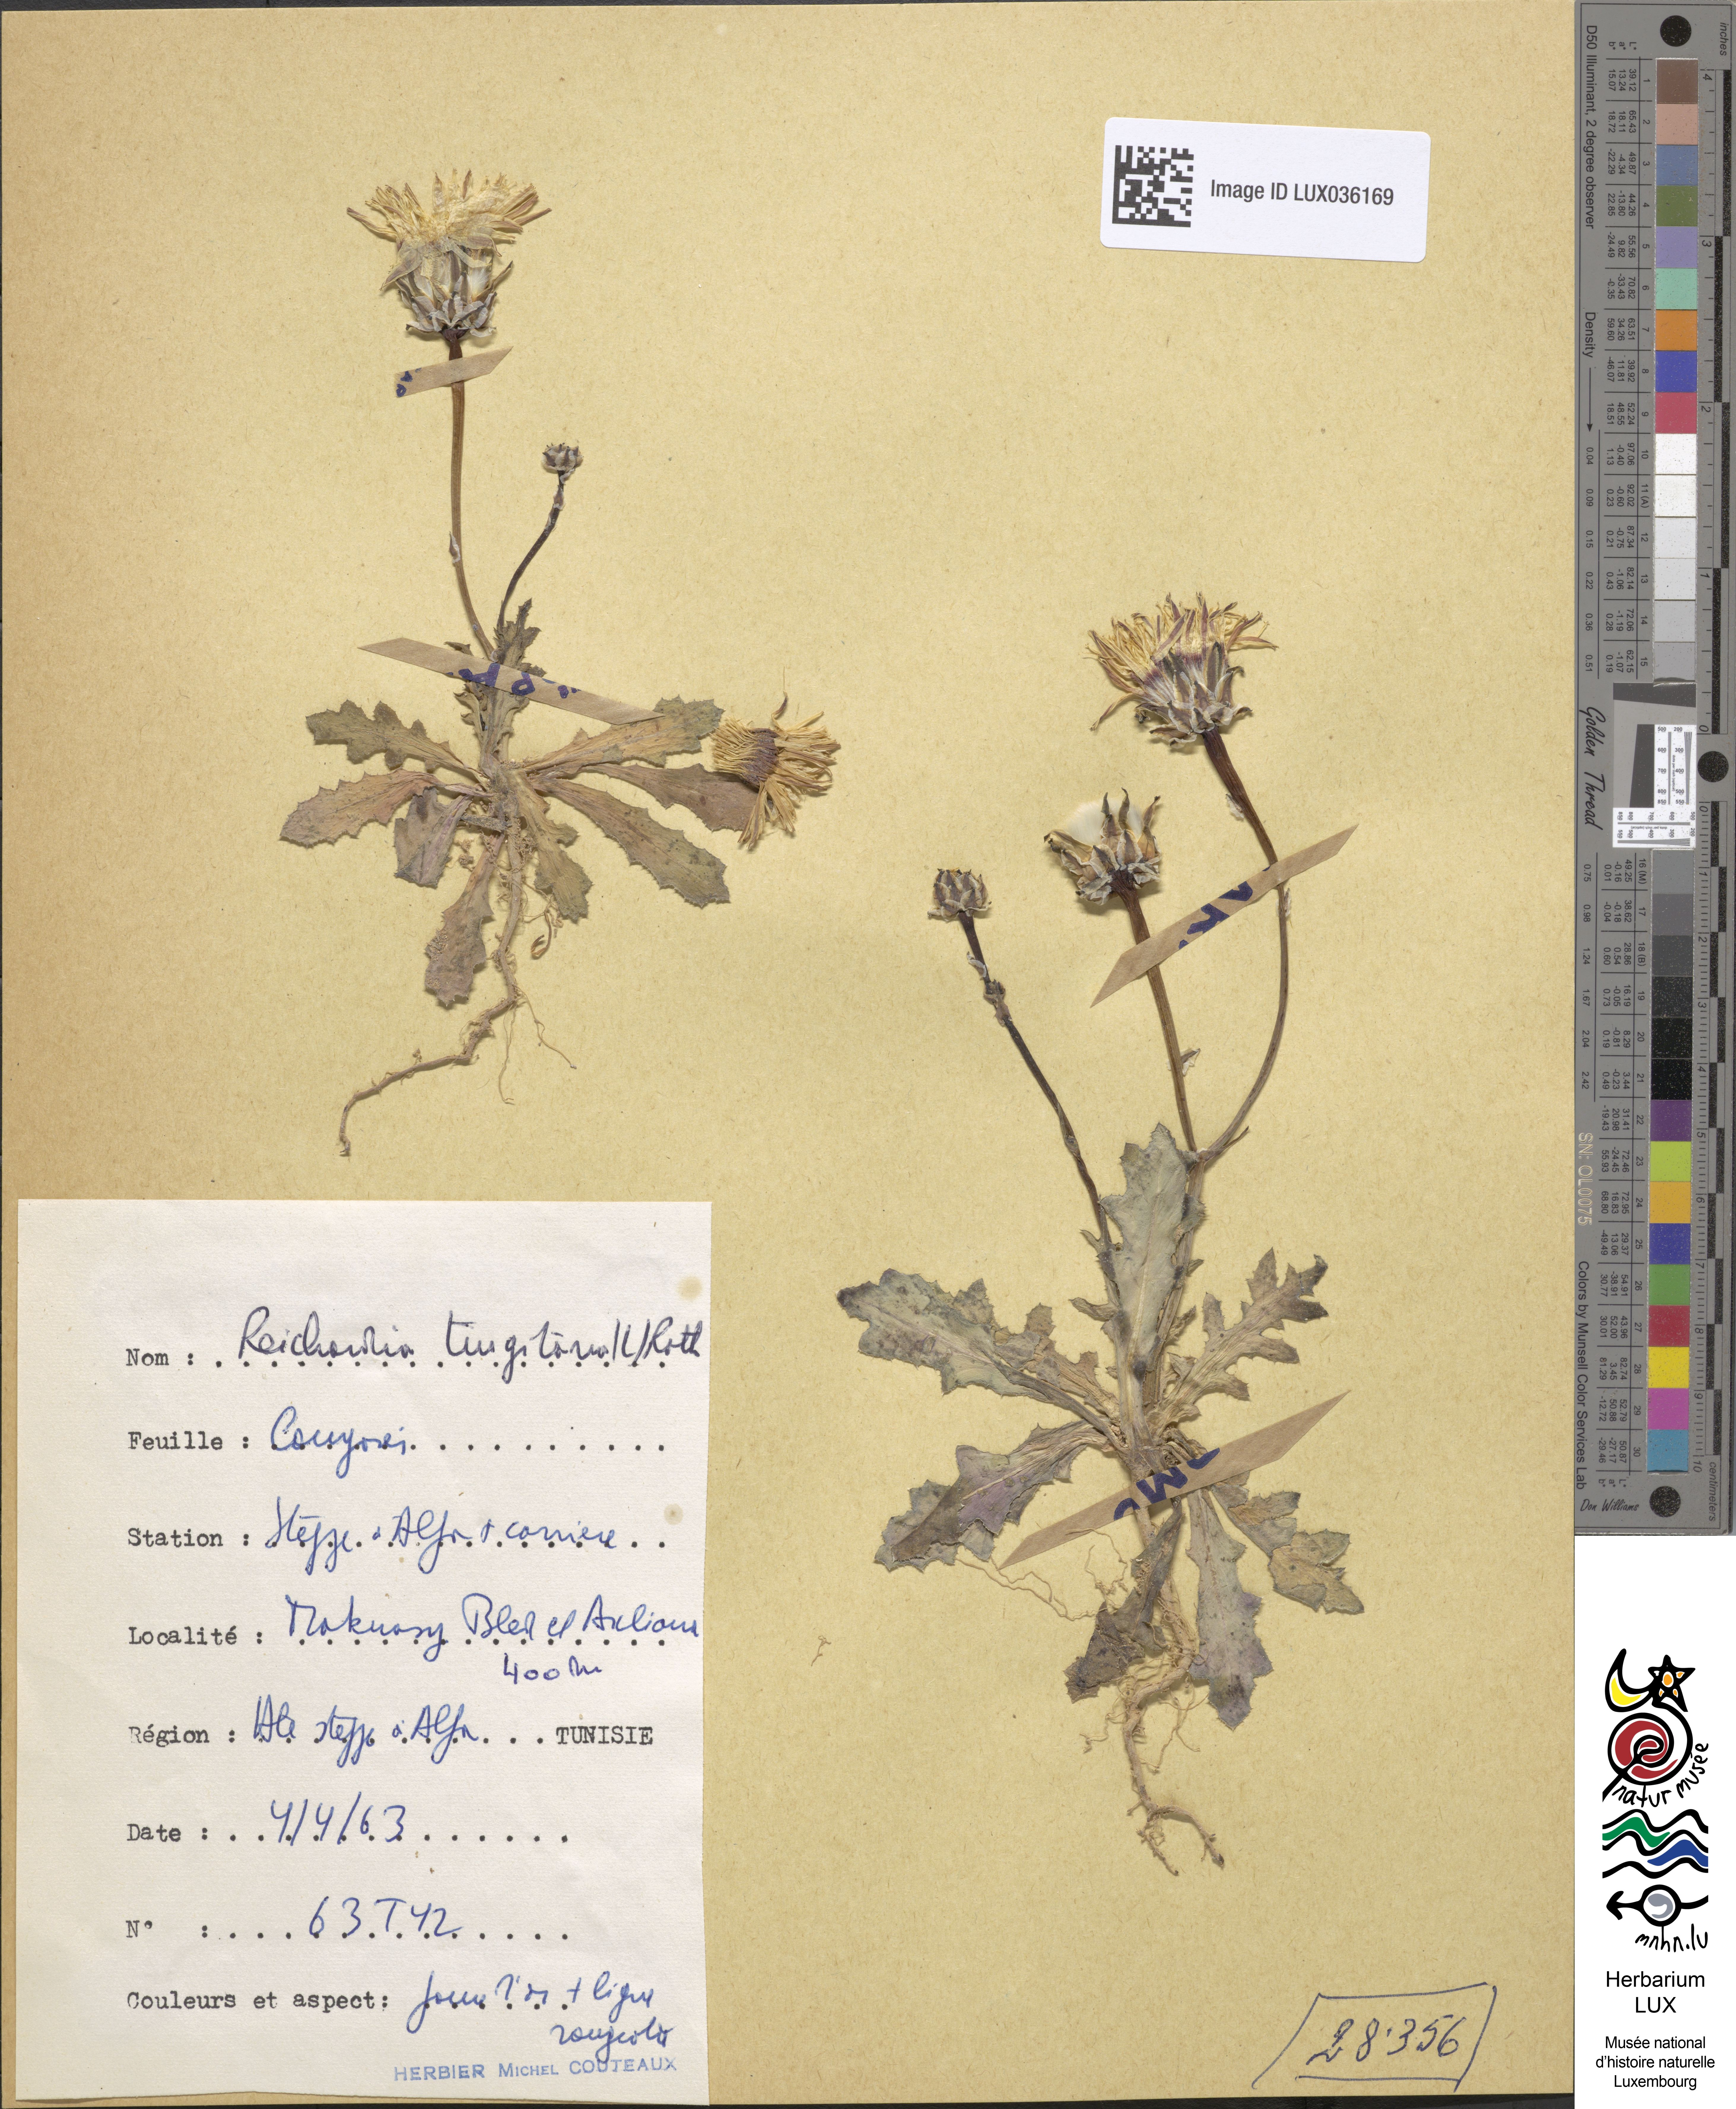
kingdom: Plantae
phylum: Tracheophyta
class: Magnoliopsida
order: Asterales
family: Asteraceae
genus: Reichardia
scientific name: Reichardia tingitana
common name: Reichardia
